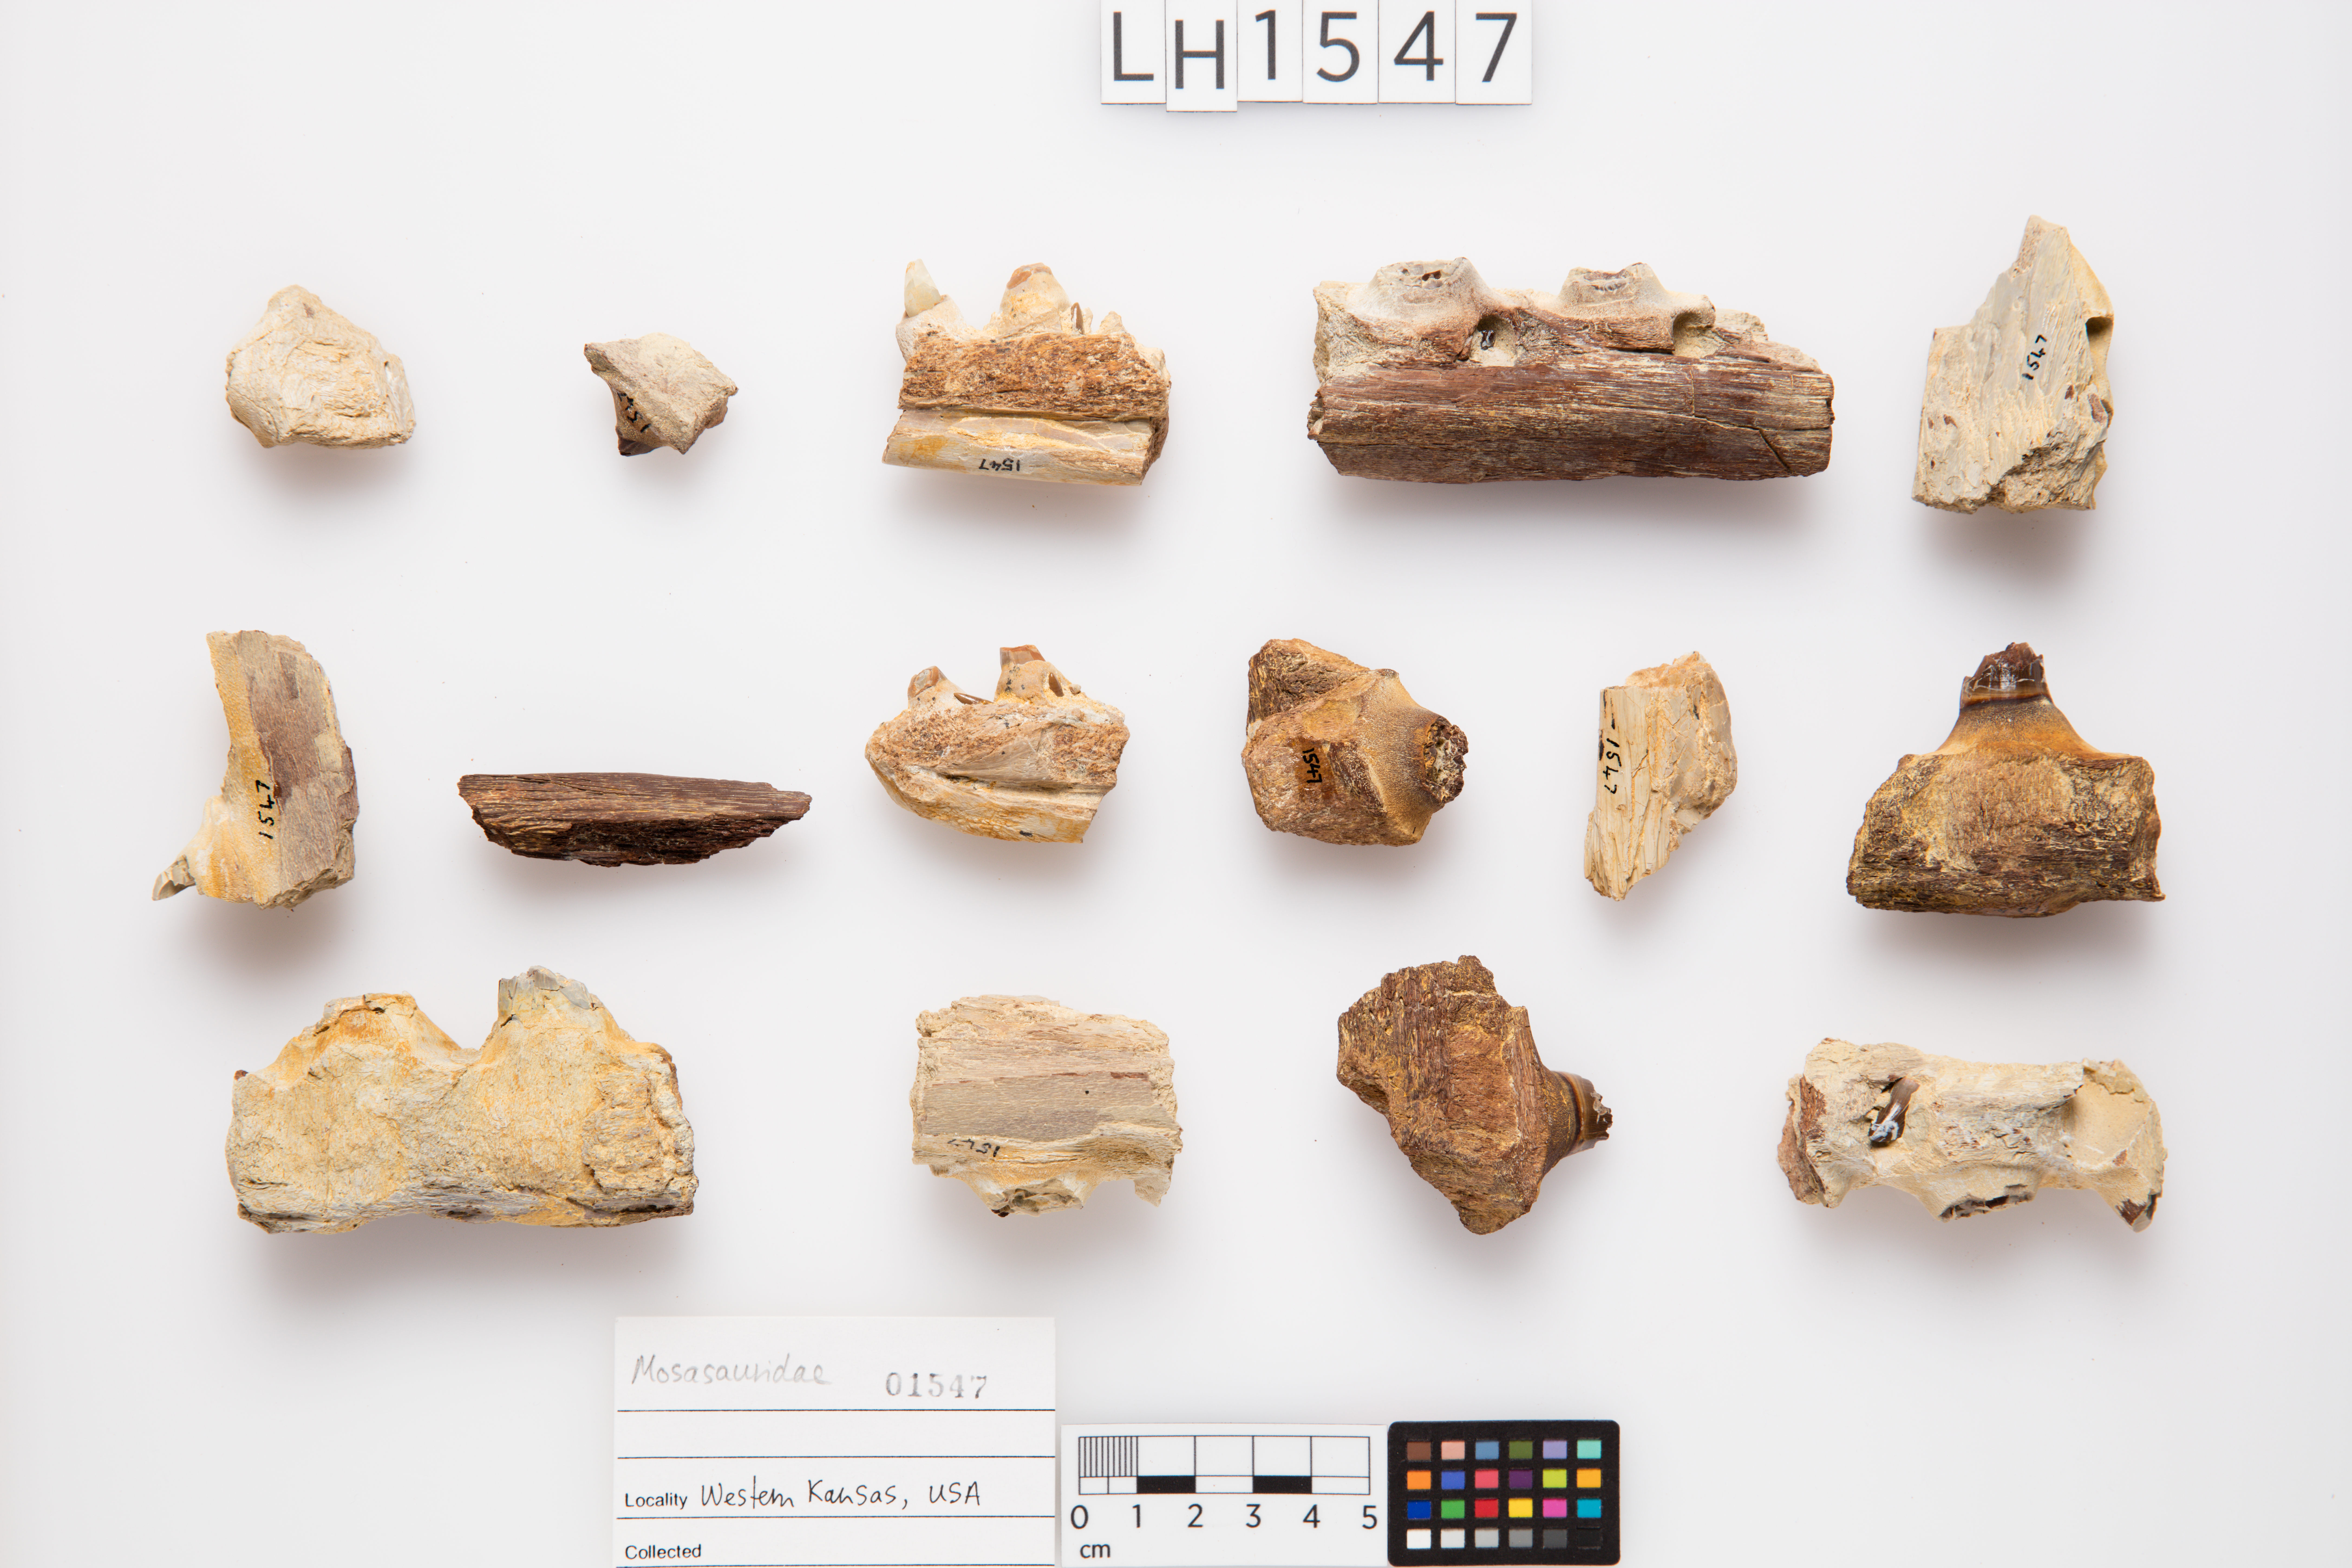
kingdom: Animalia
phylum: Chordata
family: Mosasauridae
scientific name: Mosasauridae
